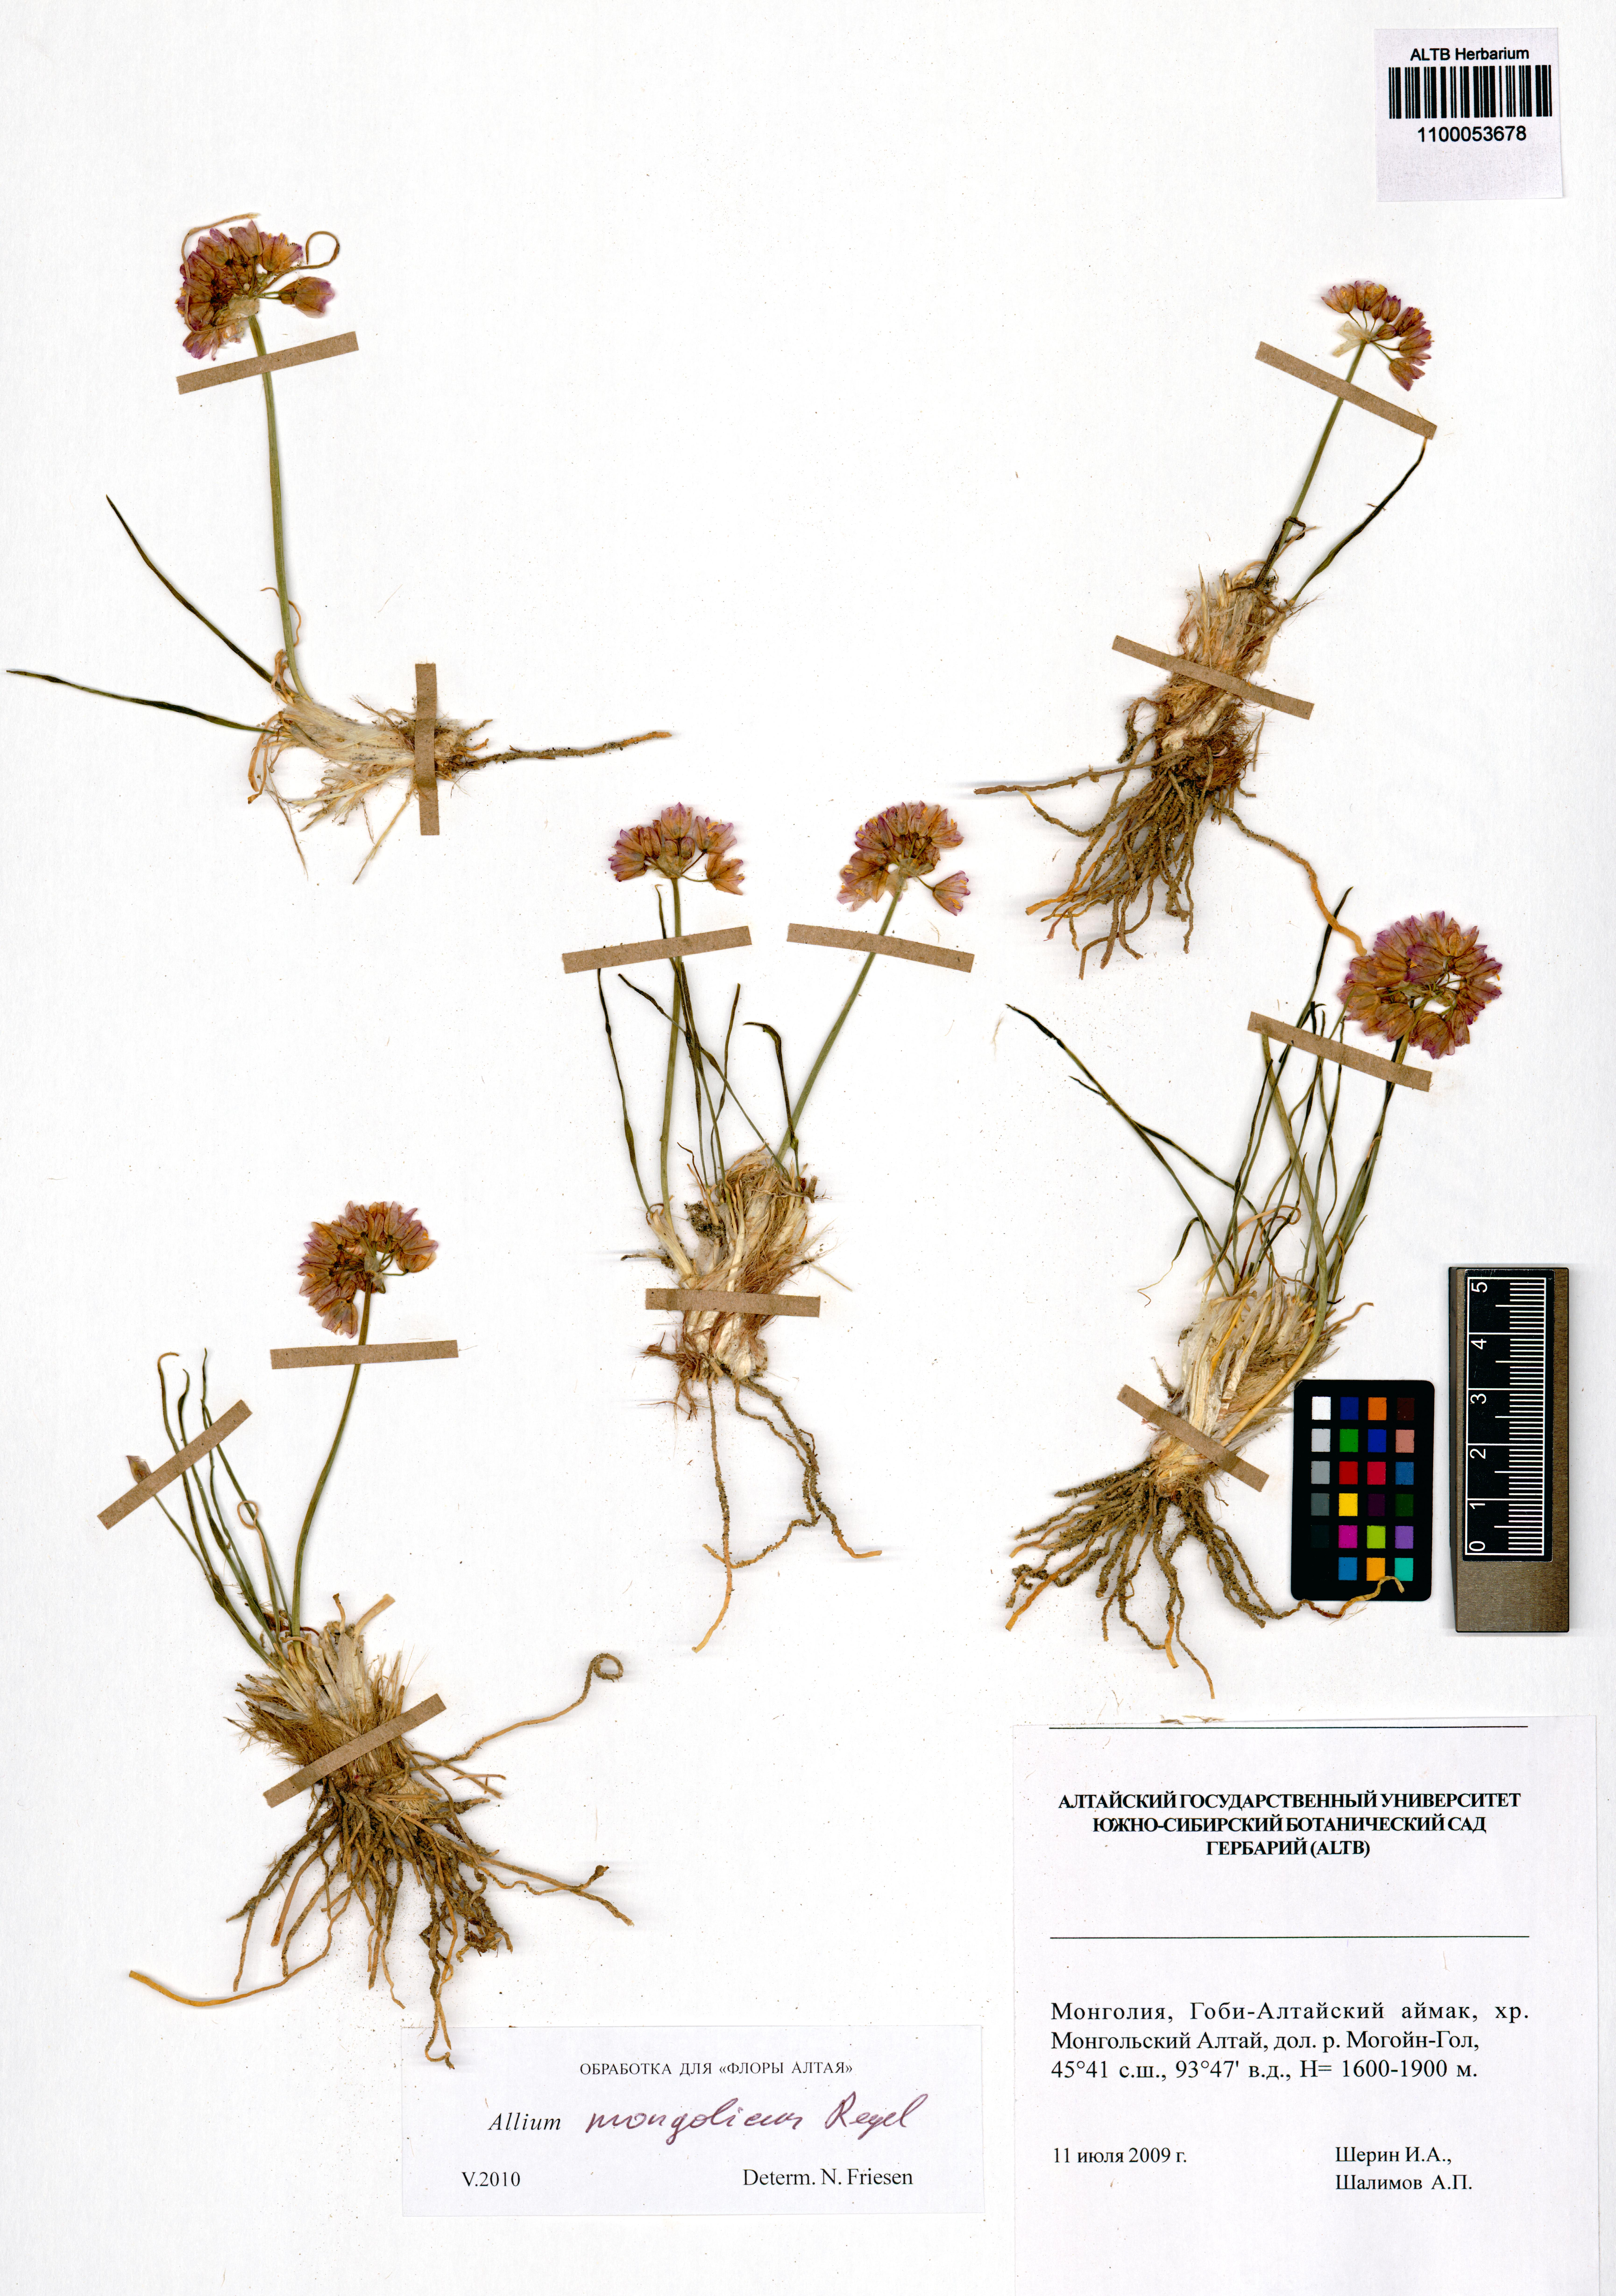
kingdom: Plantae
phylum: Tracheophyta
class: Liliopsida
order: Asparagales
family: Amaryllidaceae
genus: Allium
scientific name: Allium mongolicum
